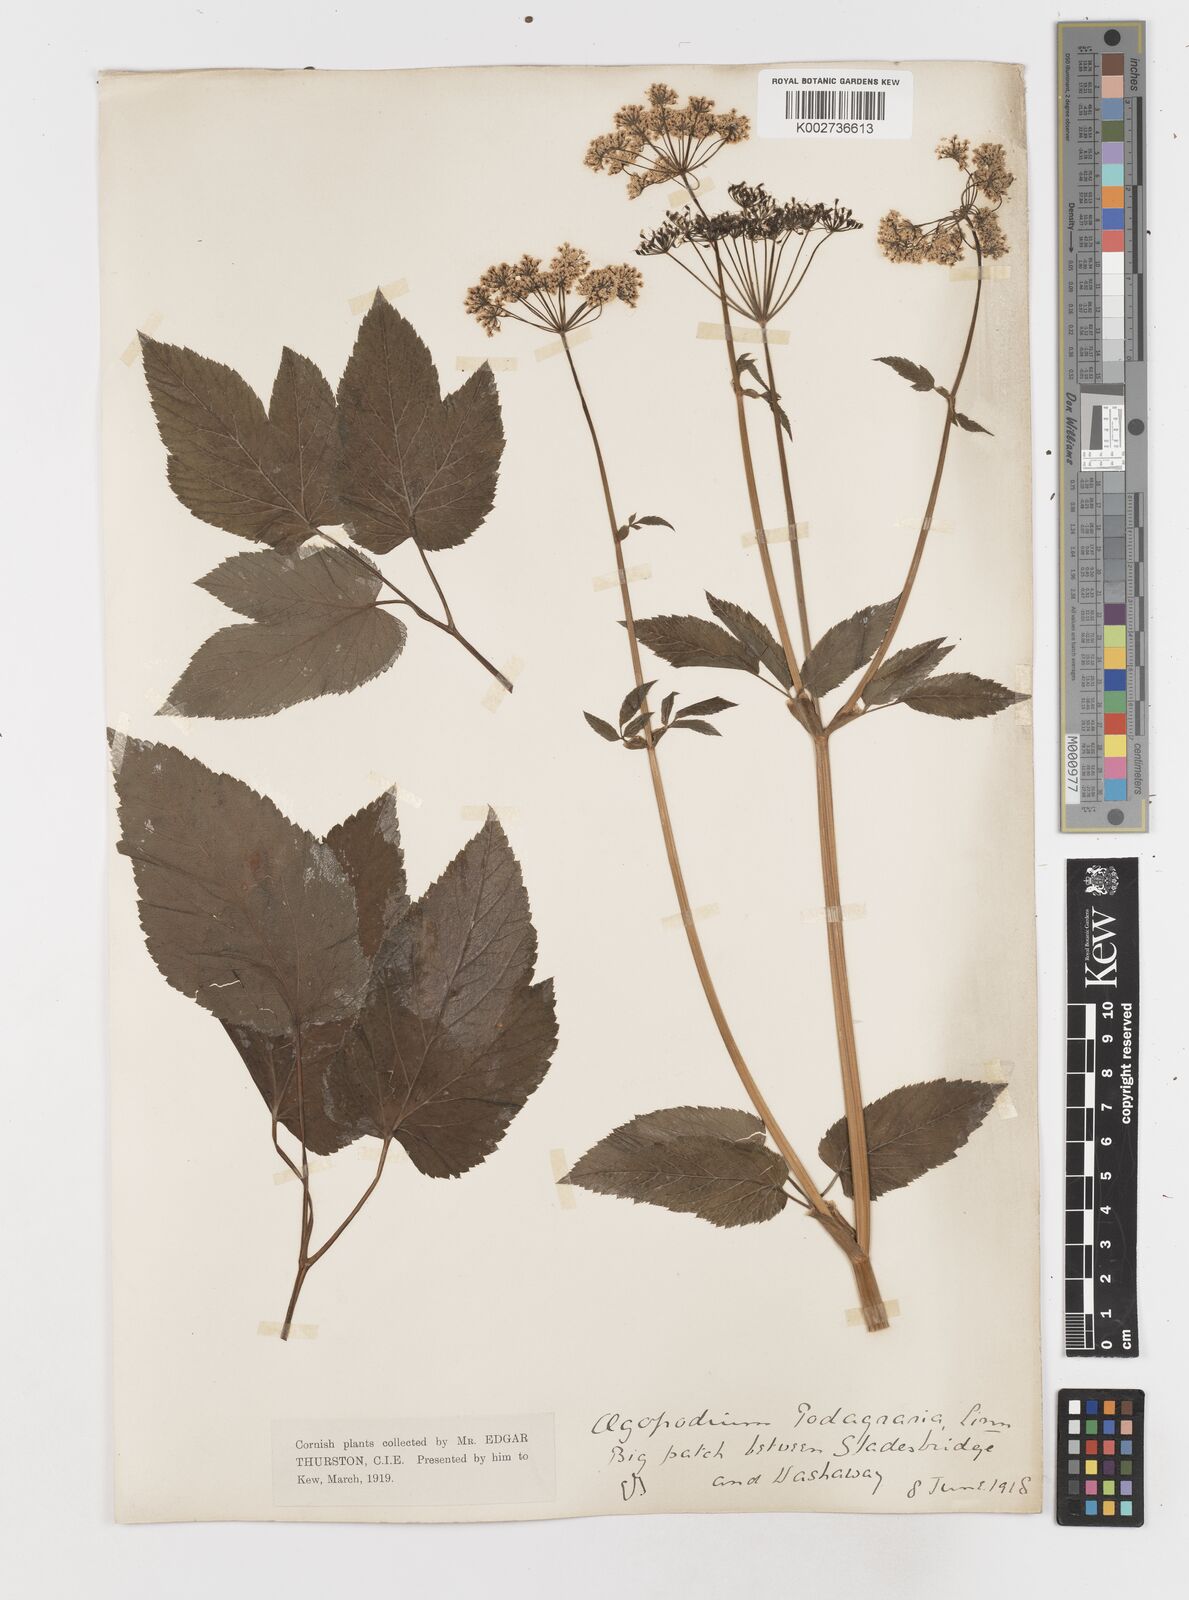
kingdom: Plantae
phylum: Tracheophyta
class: Magnoliopsida
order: Apiales
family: Apiaceae
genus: Aegopodium
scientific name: Aegopodium
